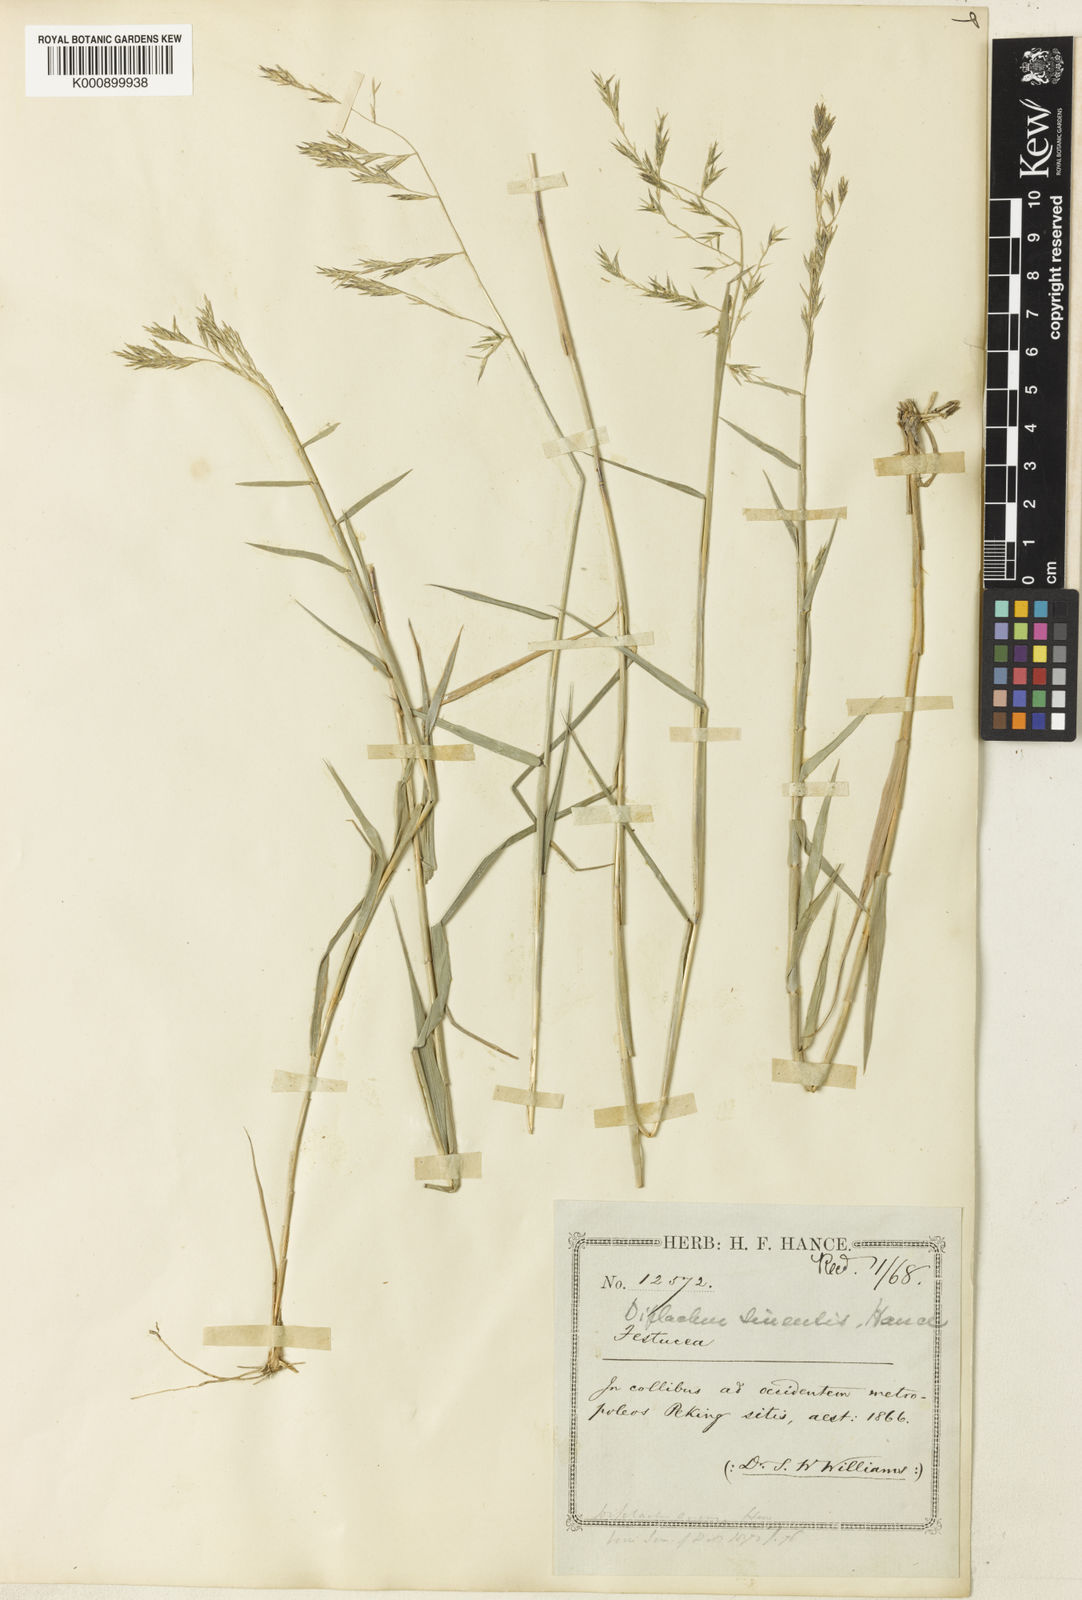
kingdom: Plantae
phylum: Tracheophyta
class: Liliopsida
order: Poales
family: Poaceae
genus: Cleistogenes
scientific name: Cleistogenes hancei
